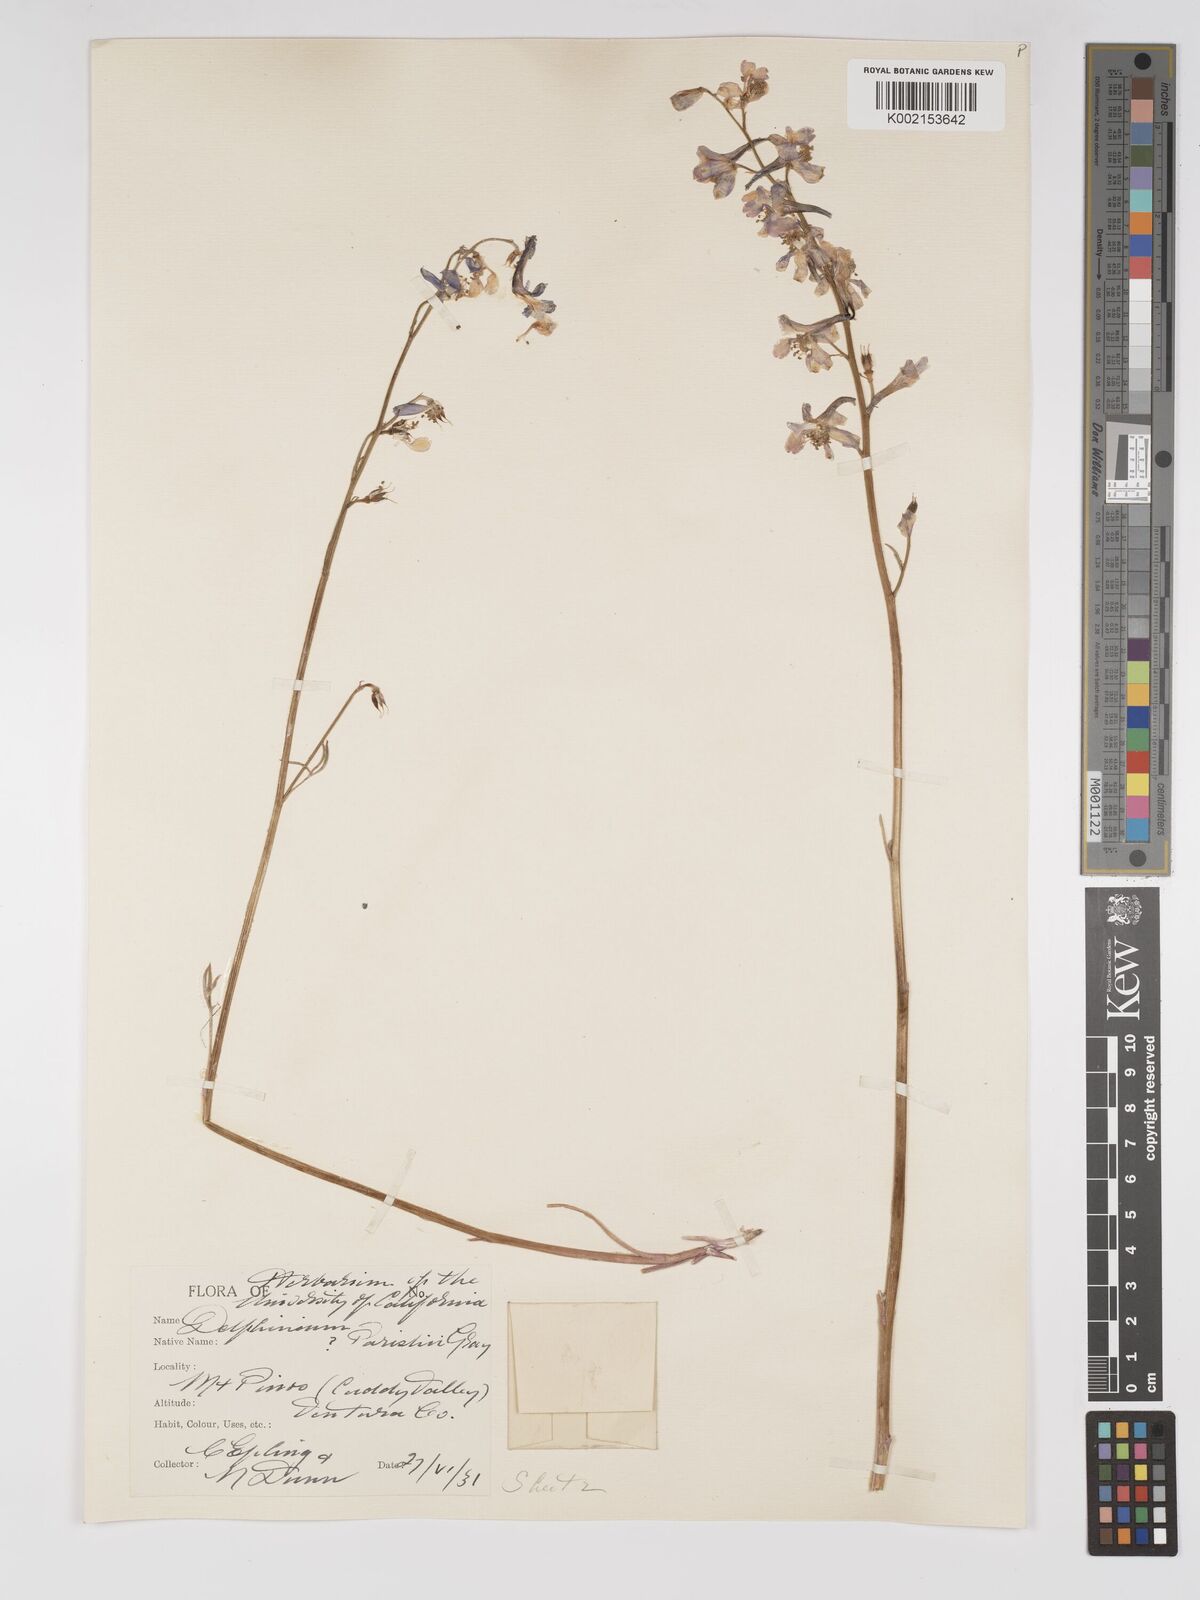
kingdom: Plantae
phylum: Tracheophyta
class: Magnoliopsida
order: Ranunculales
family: Ranunculaceae
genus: Delphinium
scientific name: Delphinium parishii
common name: Apache larkspur
